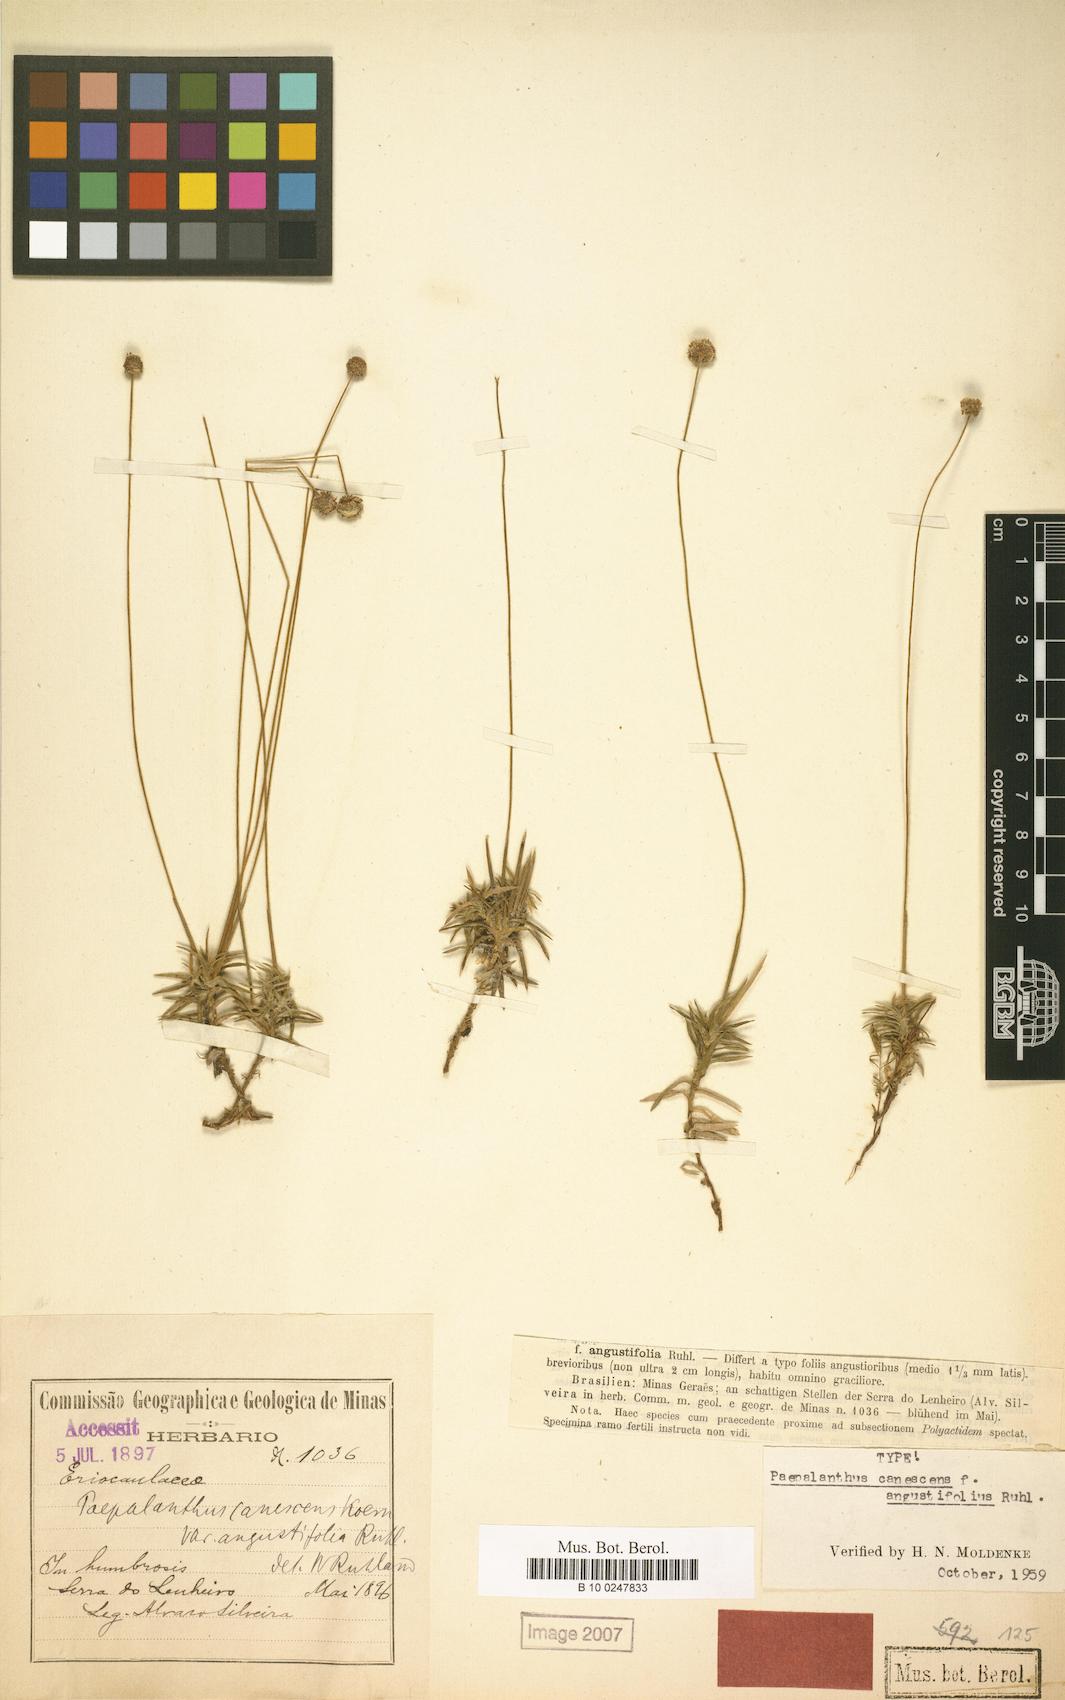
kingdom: Plantae
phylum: Tracheophyta
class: Liliopsida
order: Poales
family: Eriocaulaceae
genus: Paepalanthus
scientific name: Paepalanthus canescens
